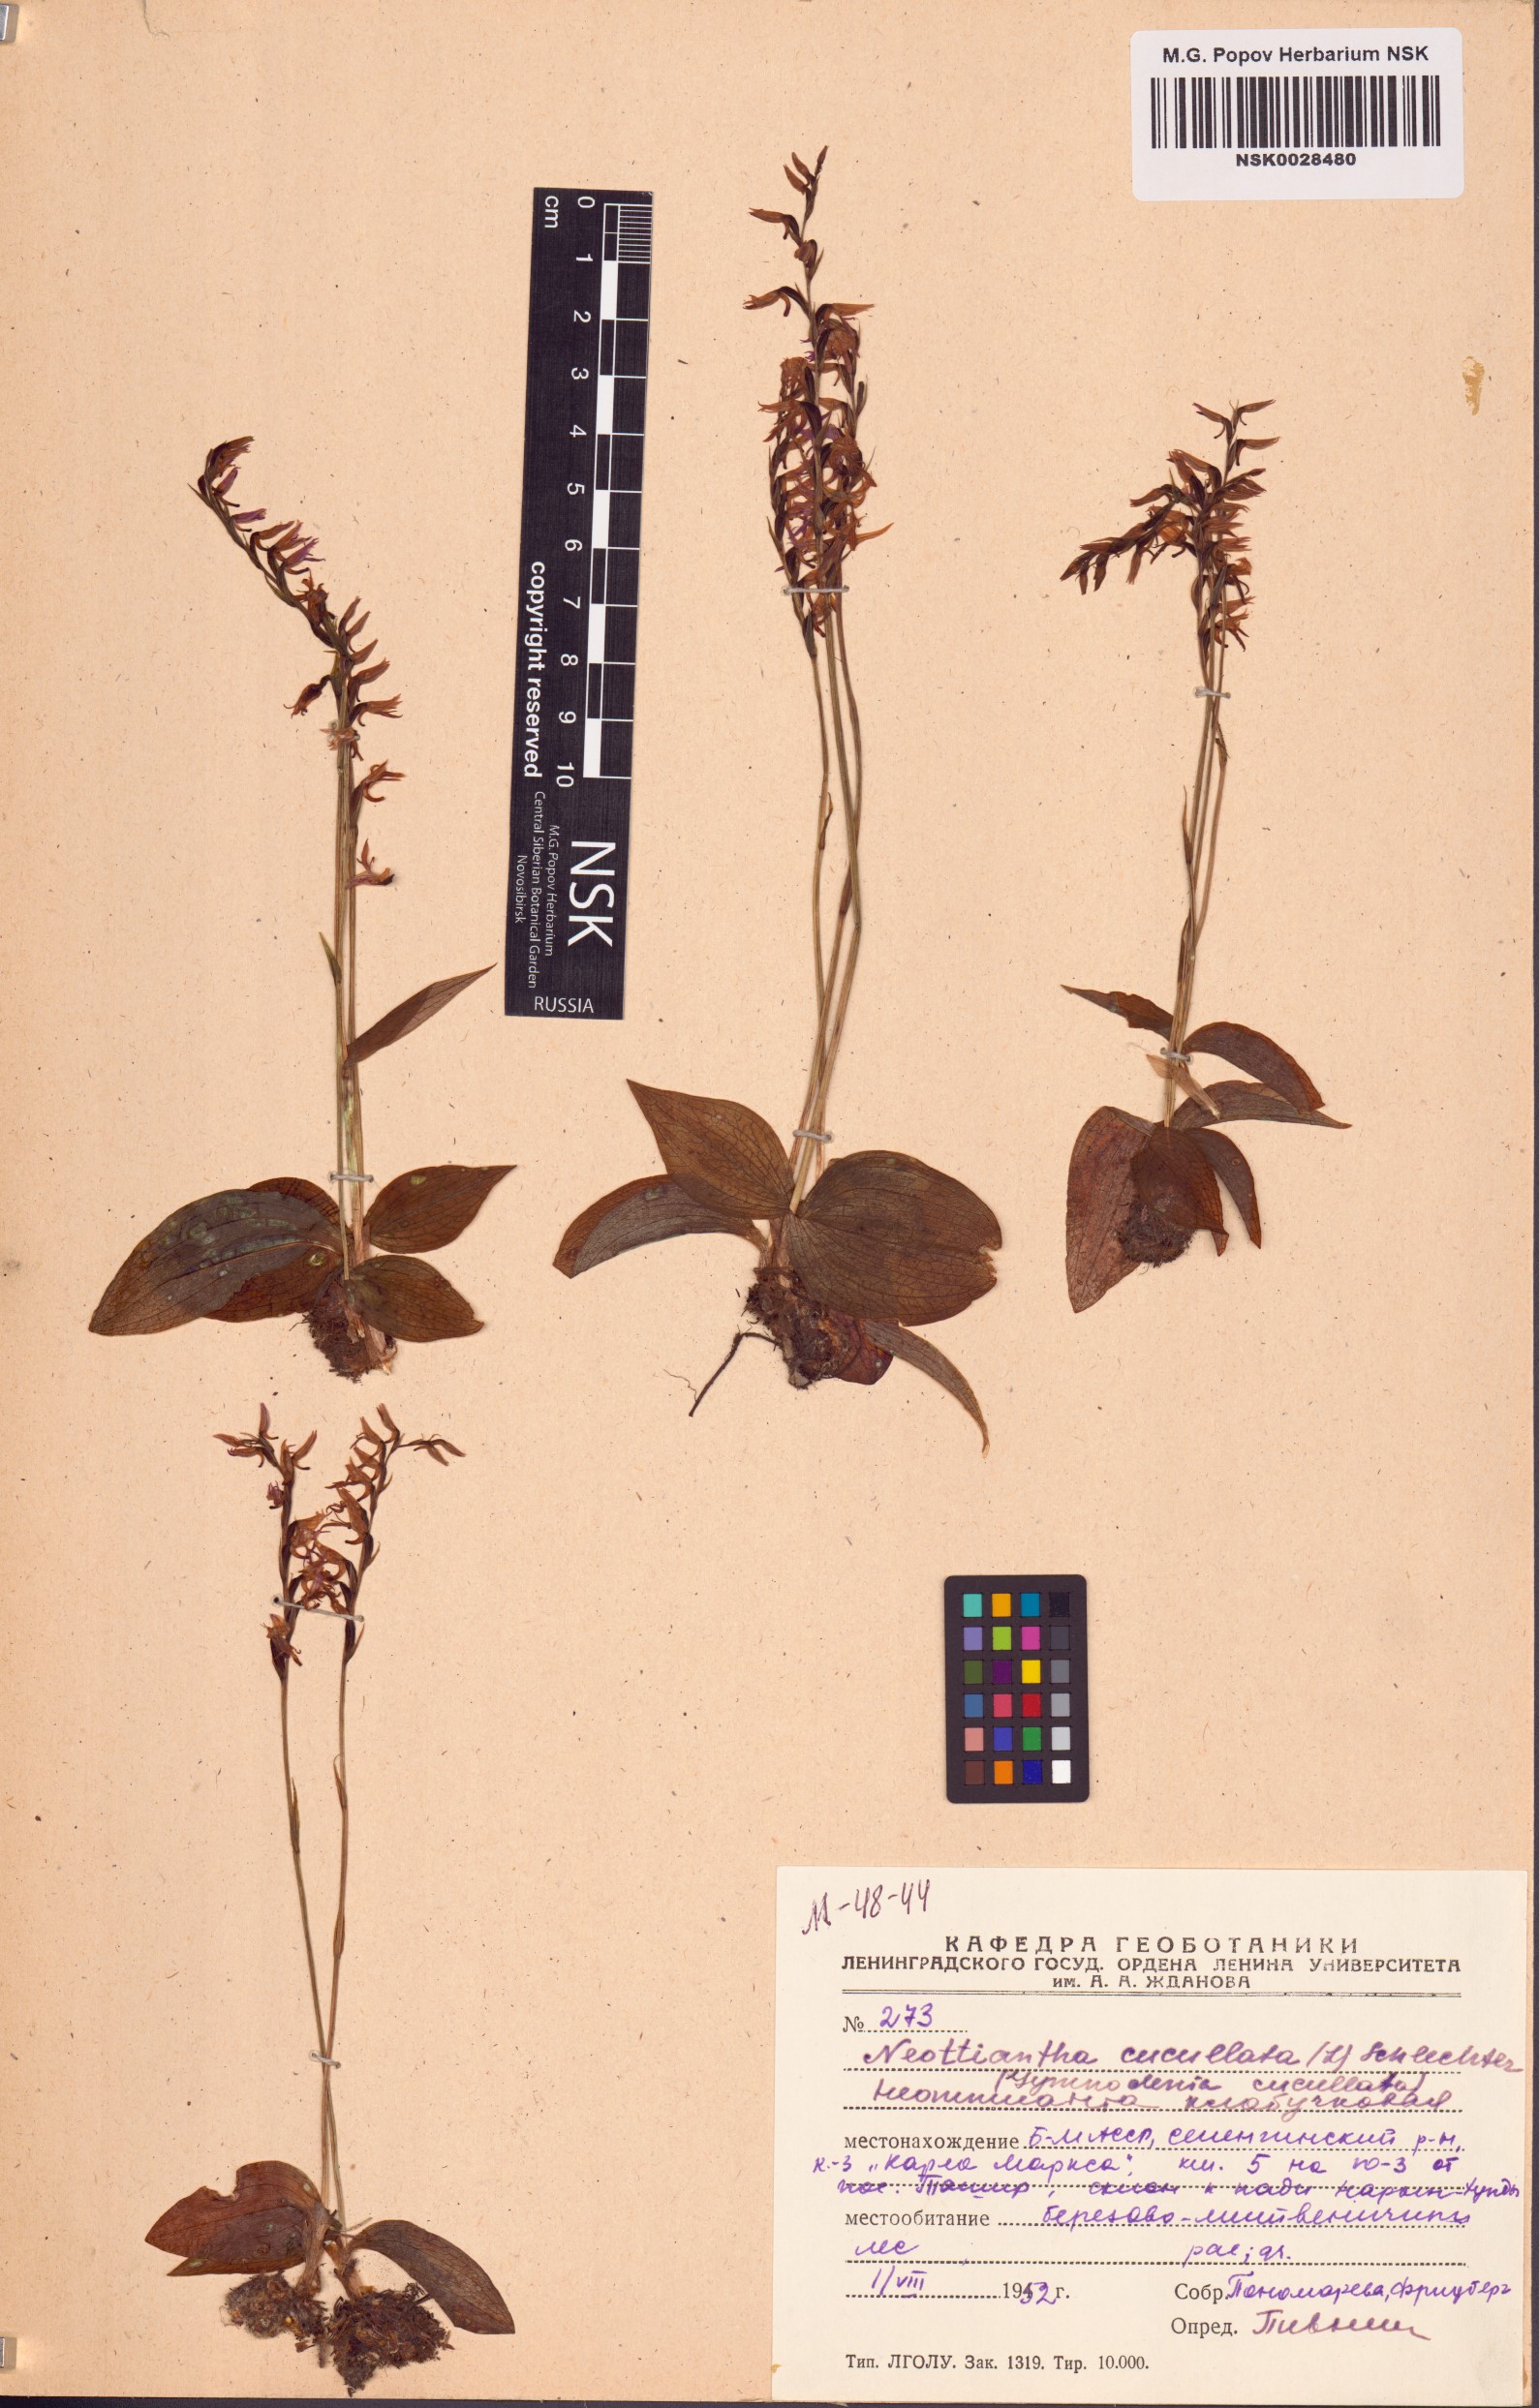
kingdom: Plantae
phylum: Tracheophyta
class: Liliopsida
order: Asparagales
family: Orchidaceae
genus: Hemipilia
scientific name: Hemipilia cucullata
